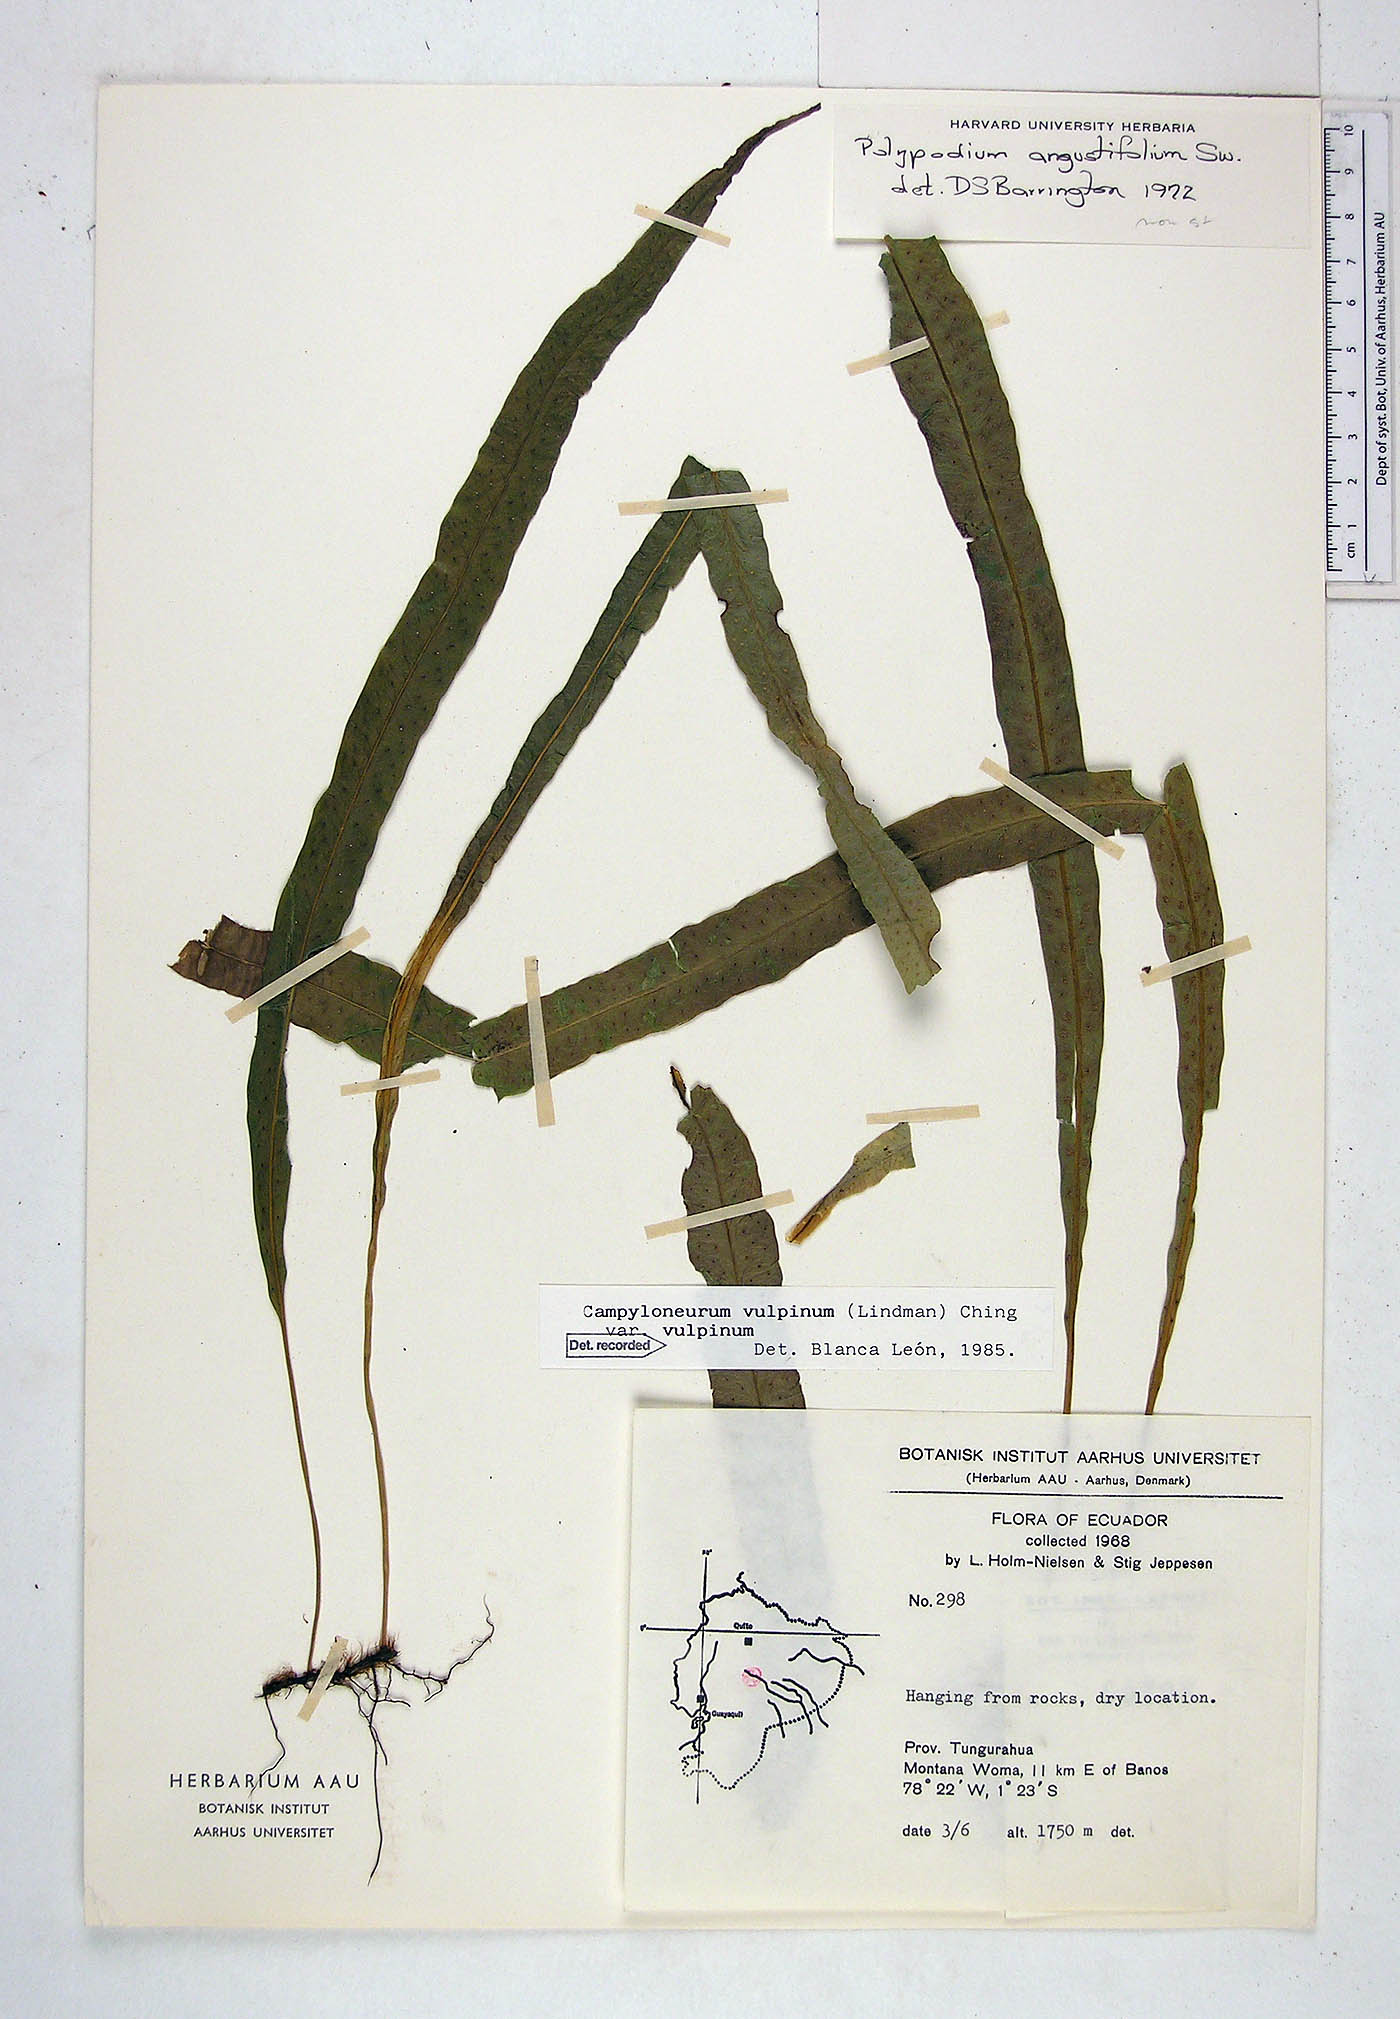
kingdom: Plantae
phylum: Tracheophyta
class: Polypodiopsida
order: Polypodiales
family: Polypodiaceae
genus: Campyloneurum
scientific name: Campyloneurum vulpinum
